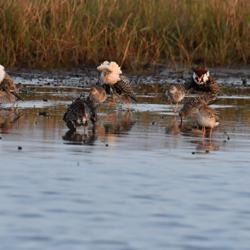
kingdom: Animalia
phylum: Chordata
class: Aves
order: Charadriiformes
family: Scolopacidae
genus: Calidris
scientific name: Calidris pugnax
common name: Brushane
